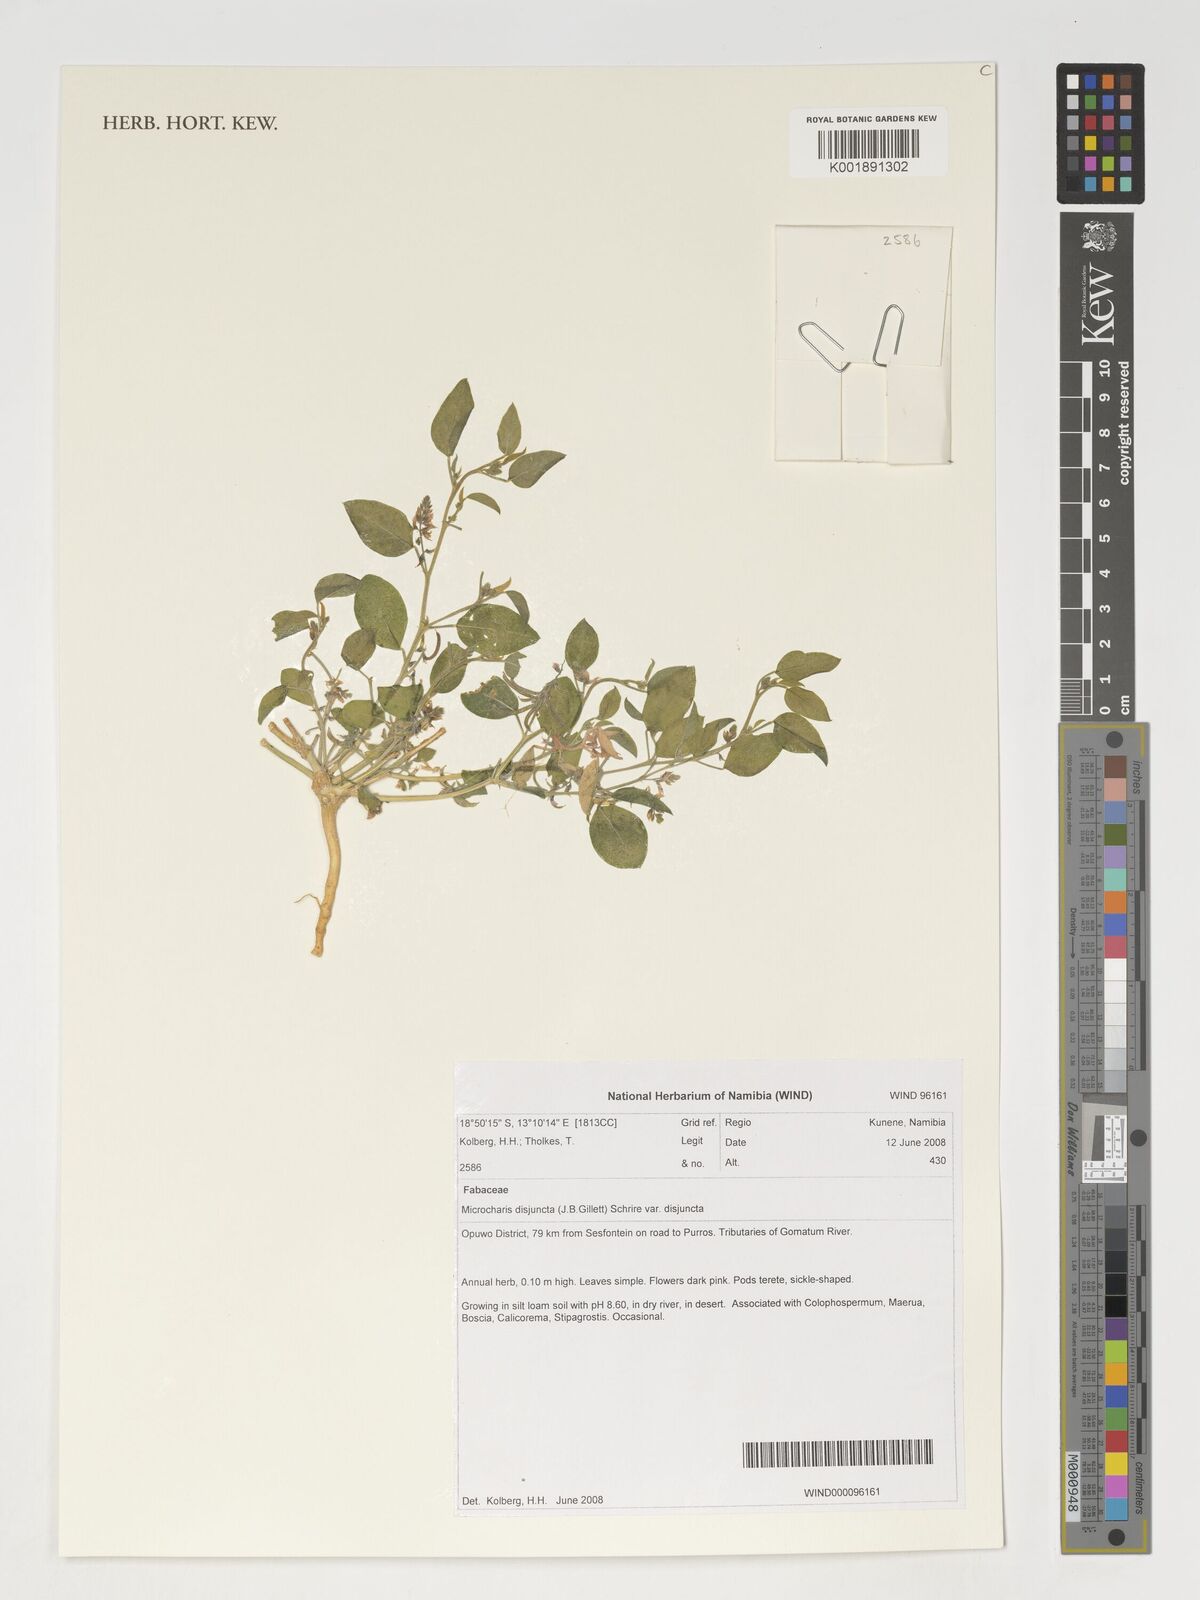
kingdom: Plantae
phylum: Tracheophyta
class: Magnoliopsida
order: Fabales
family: Fabaceae
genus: Microcharis
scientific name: Microcharis disjuncta
